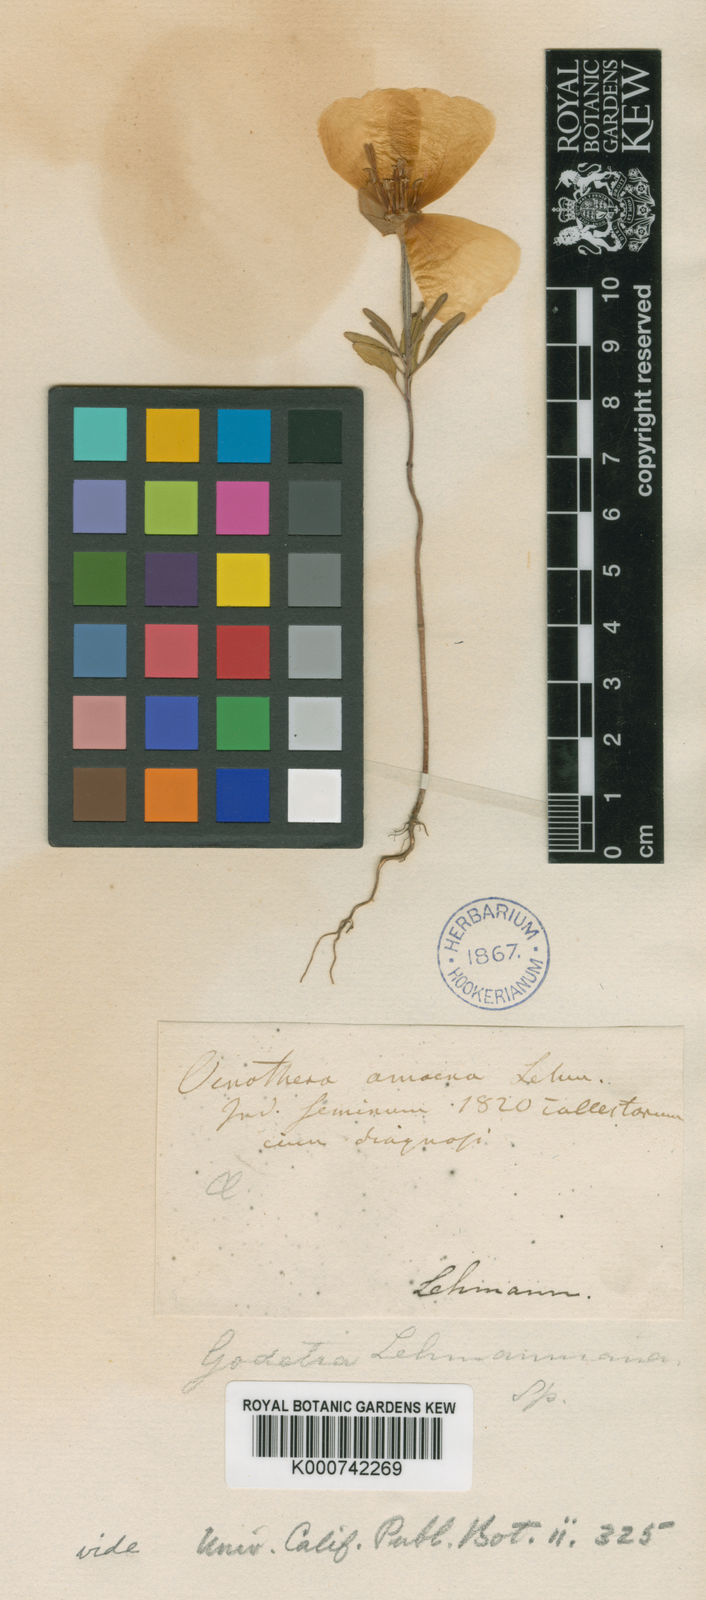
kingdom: Plantae
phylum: Tracheophyta
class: Magnoliopsida
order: Myrtales
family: Onagraceae
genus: Clarkia
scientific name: Clarkia amoena
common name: Godetia
